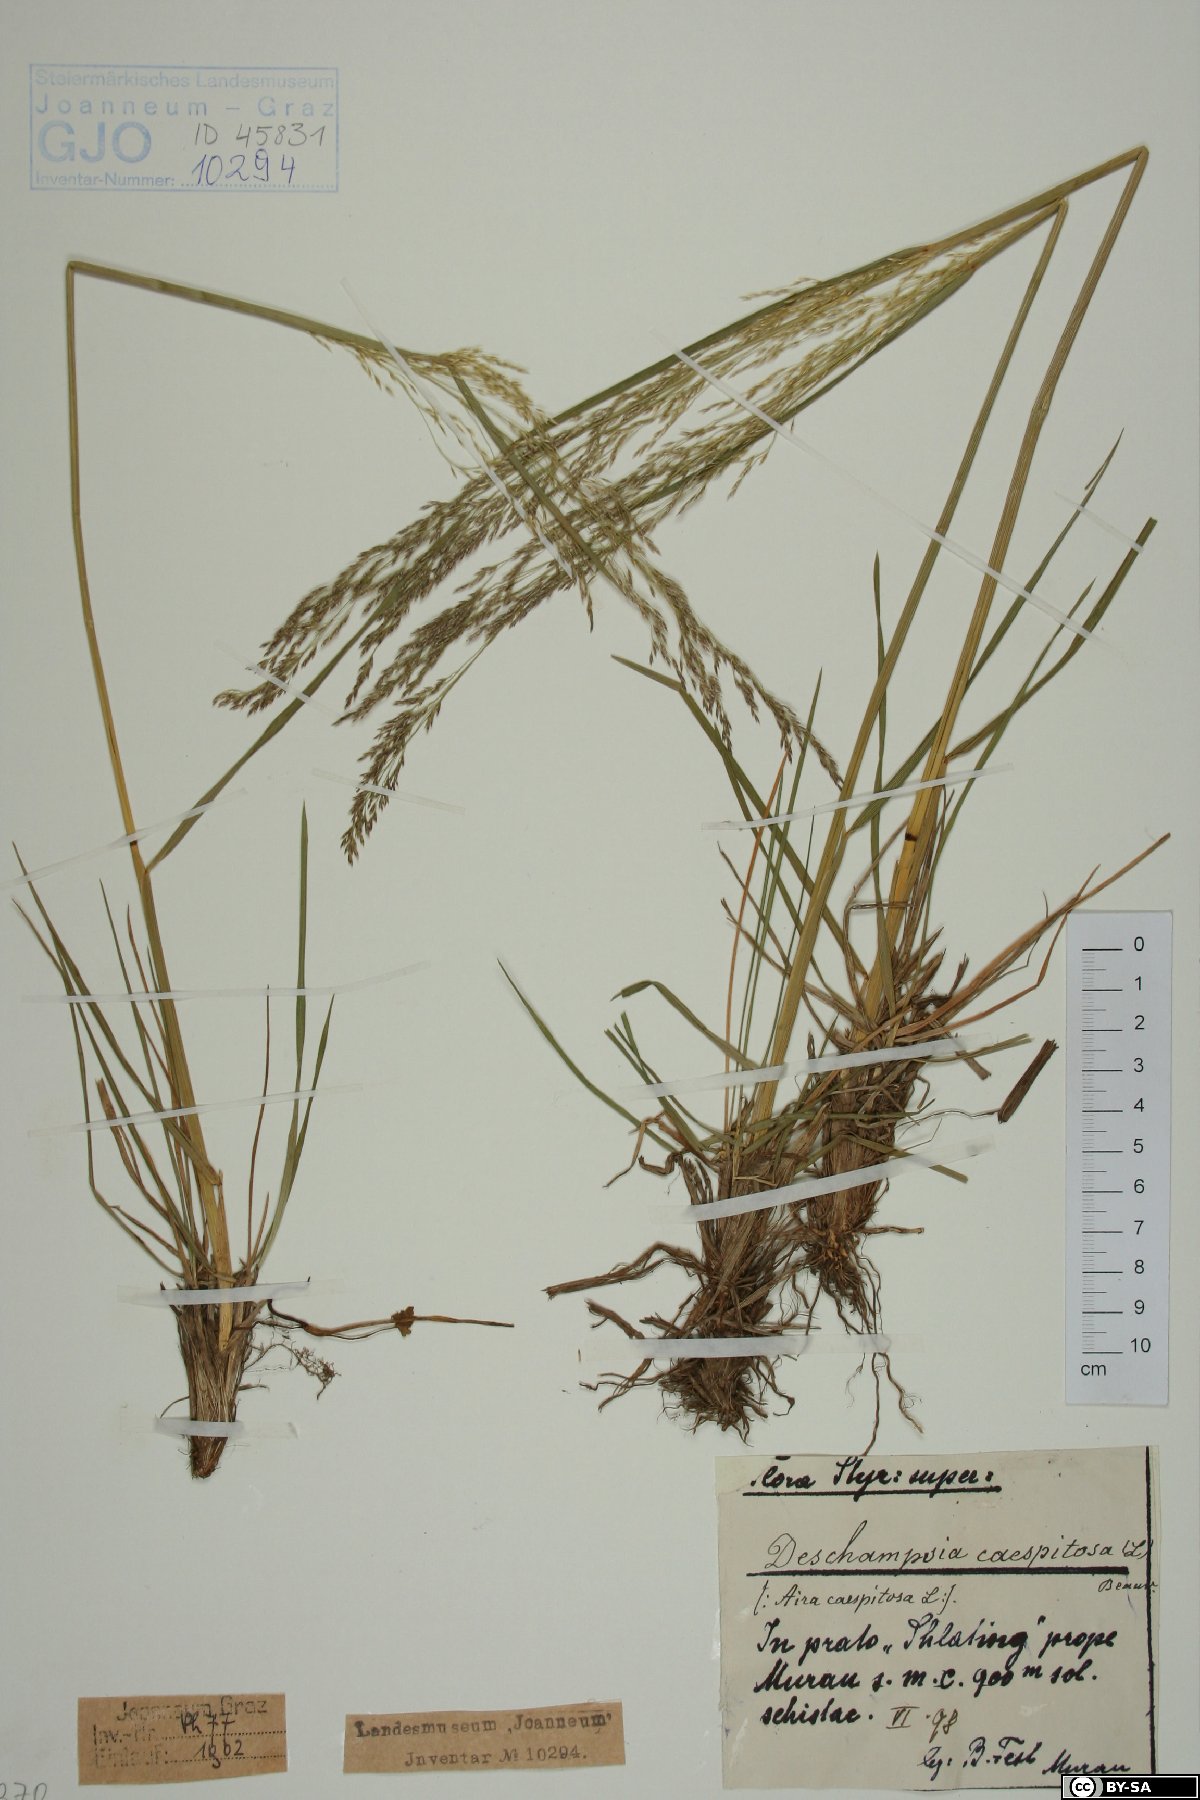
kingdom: Plantae
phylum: Tracheophyta
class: Liliopsida
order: Poales
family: Poaceae
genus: Deschampsia
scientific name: Deschampsia cespitosa
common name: Tufted hair-grass
